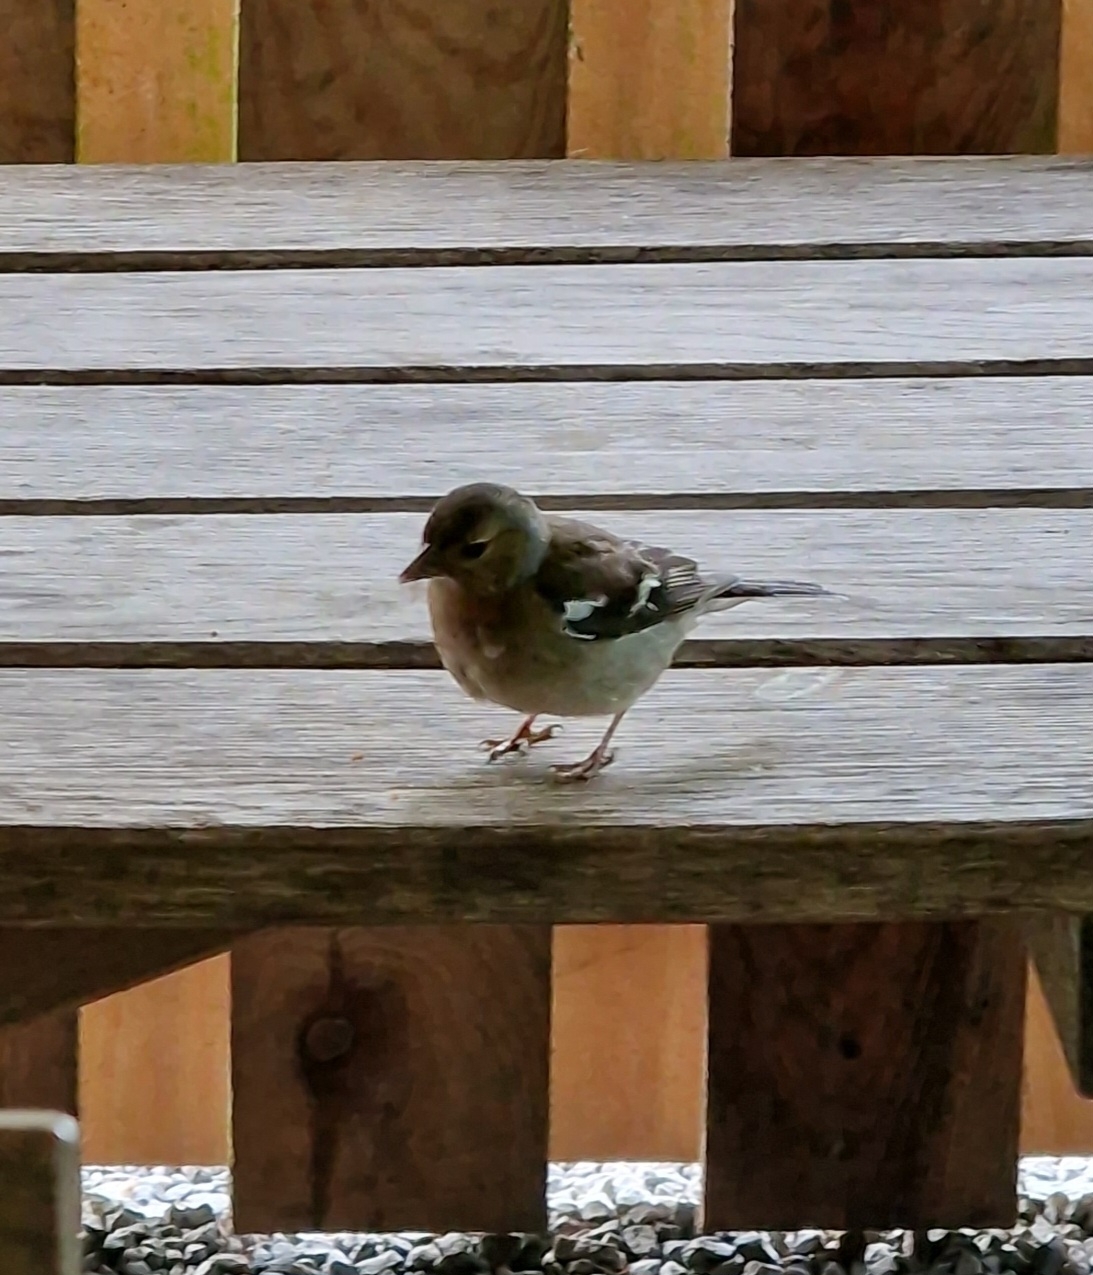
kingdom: Animalia
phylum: Chordata
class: Aves
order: Passeriformes
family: Fringillidae
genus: Fringilla
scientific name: Fringilla coelebs
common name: Bogfinke
